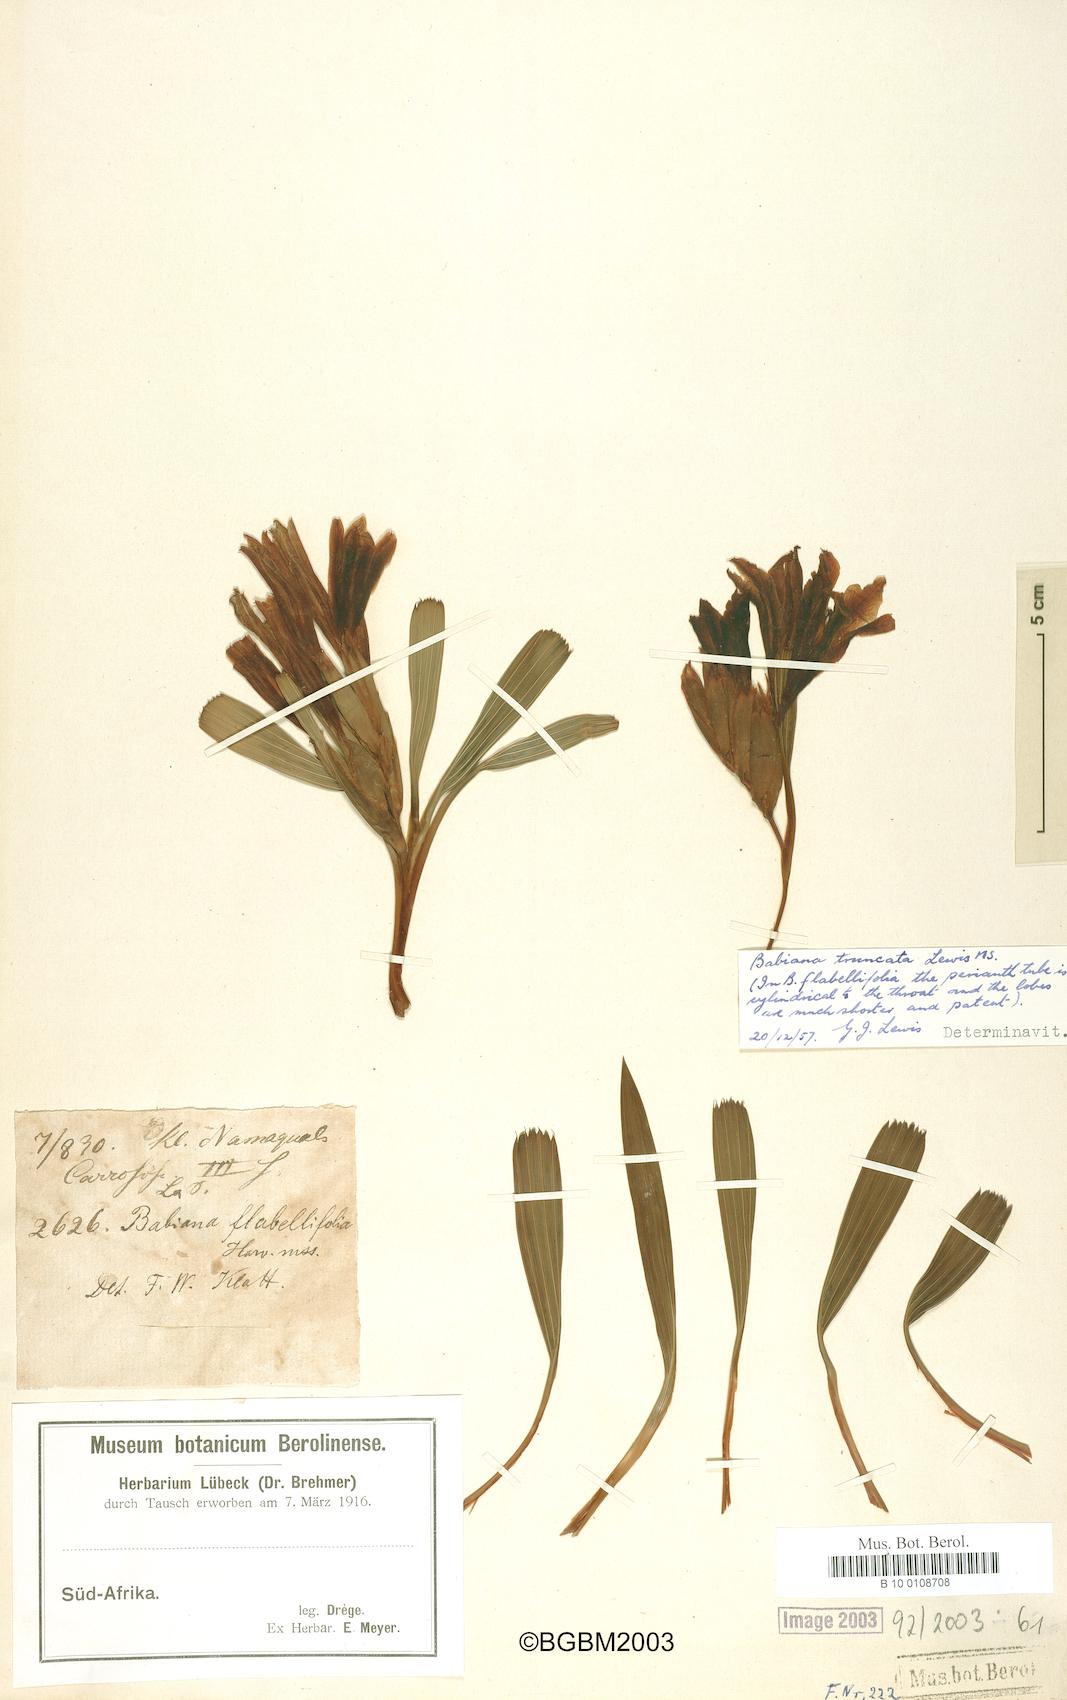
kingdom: Plantae
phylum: Tracheophyta
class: Liliopsida
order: Asparagales
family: Iridaceae
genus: Babiana
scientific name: Babiana flabellifolia
